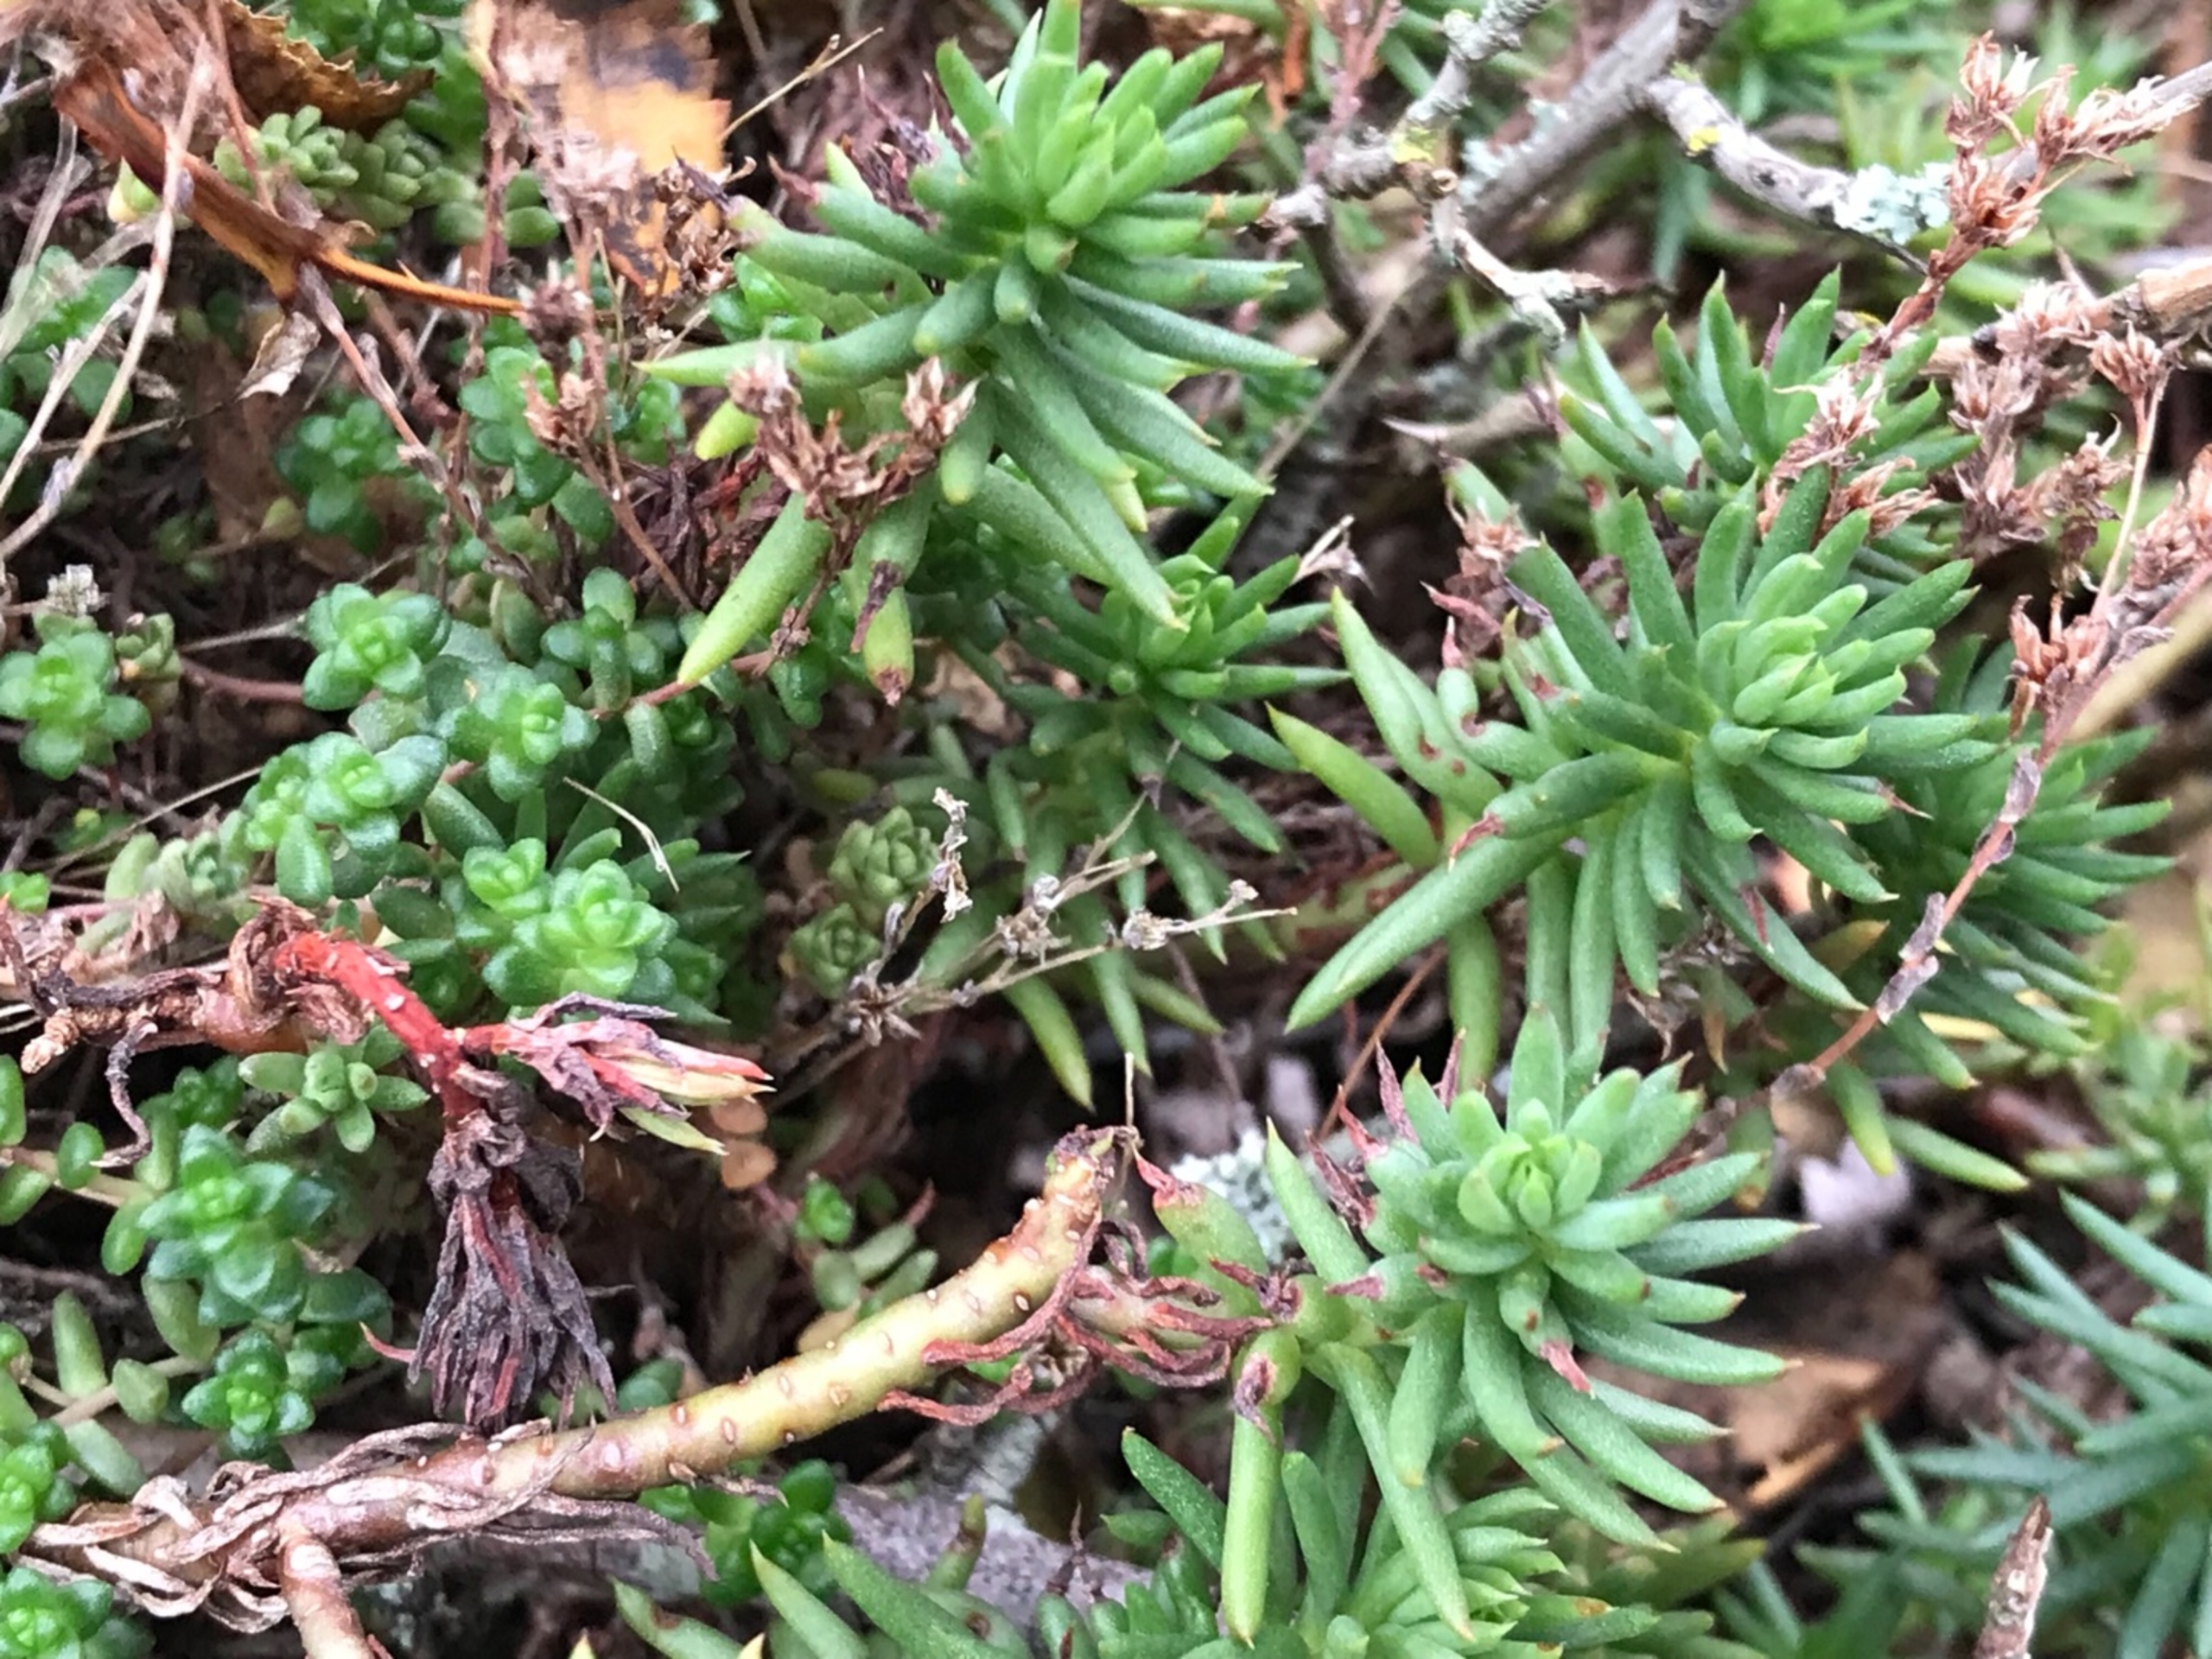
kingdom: Plantae
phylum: Tracheophyta
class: Magnoliopsida
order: Saxifragales
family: Crassulaceae
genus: Petrosedum
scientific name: Petrosedum forsterianum
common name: Fransk stenurt
